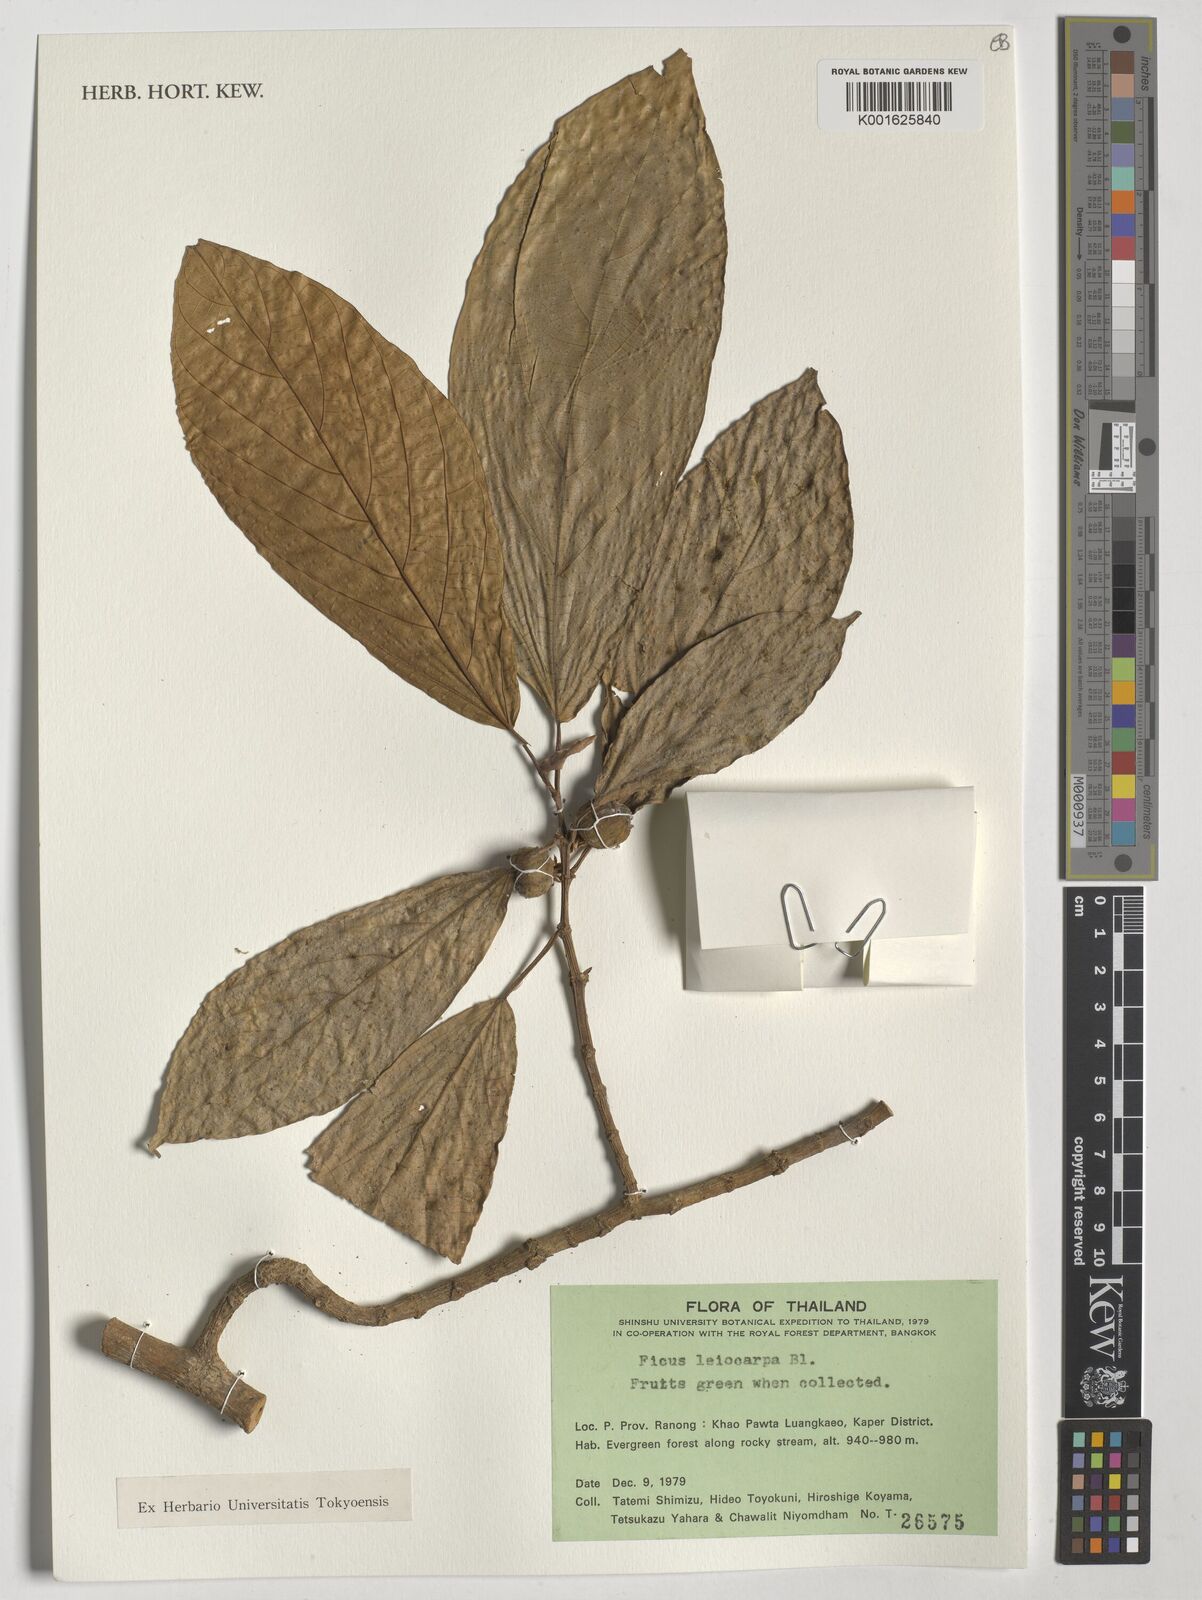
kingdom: Plantae
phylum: Tracheophyta
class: Magnoliopsida
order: Rosales
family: Moraceae
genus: Ficus
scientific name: Ficus leiocarpa
